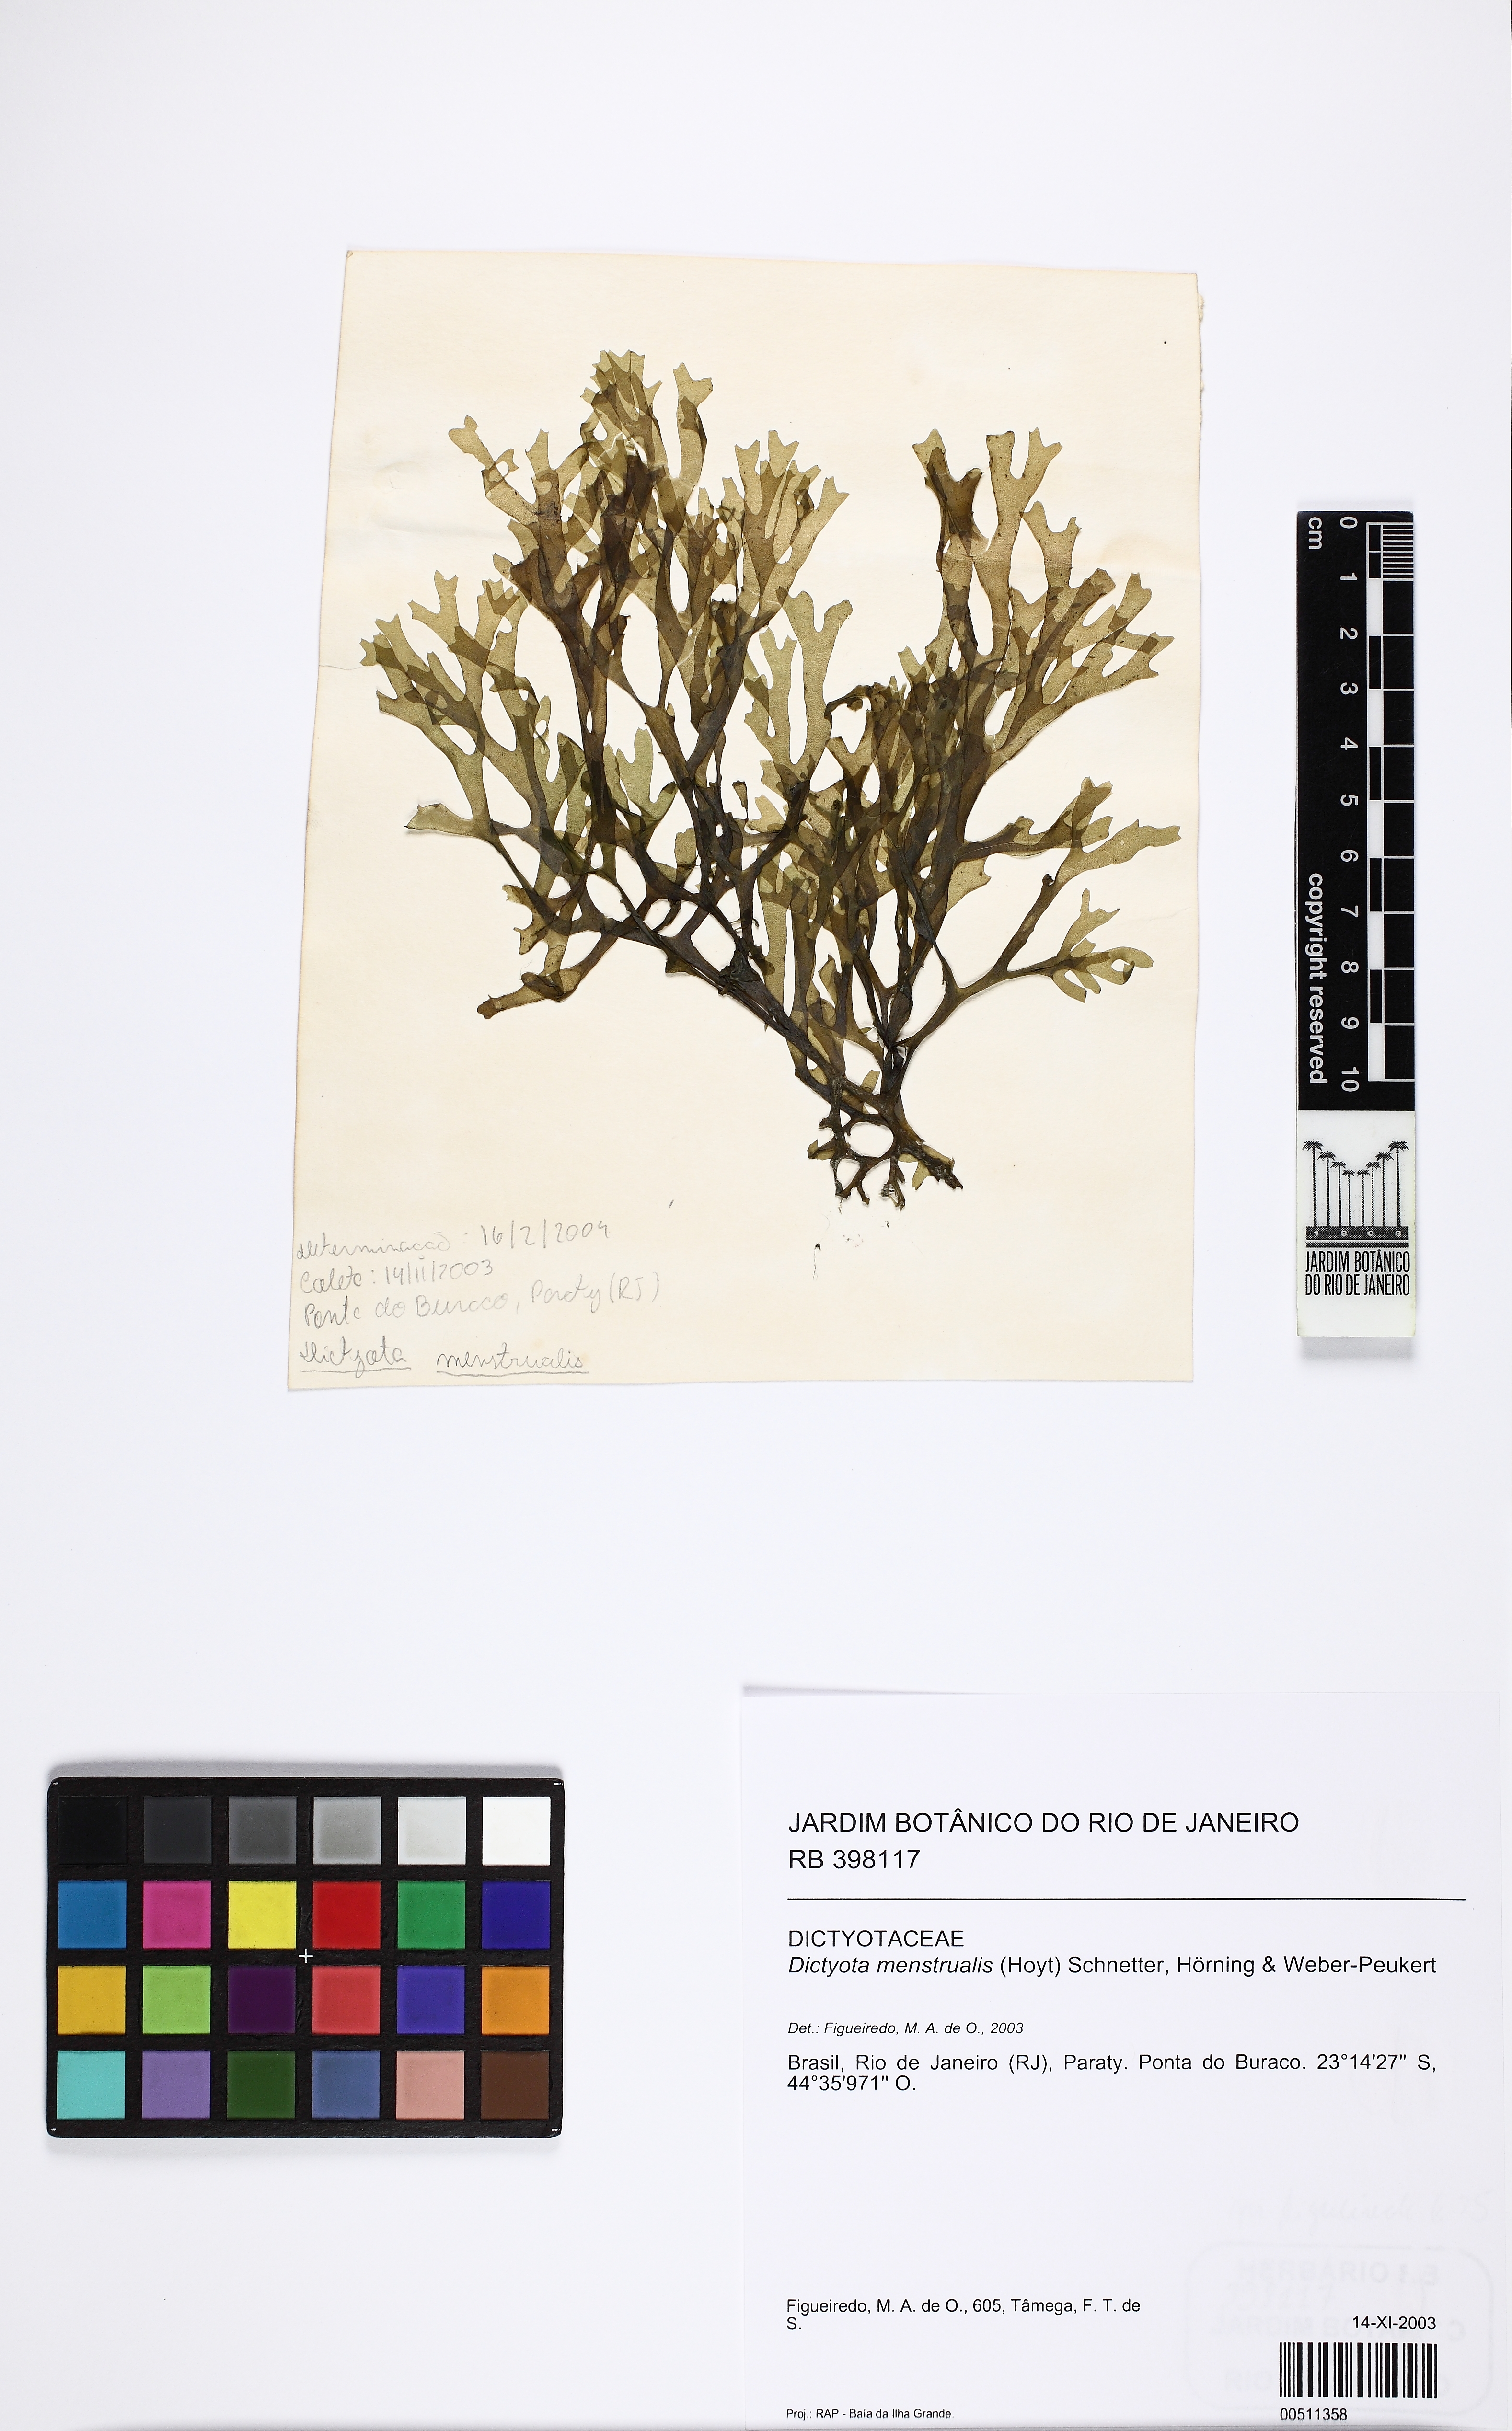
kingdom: Chromista
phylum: Ochrophyta
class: Phaeophyceae
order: Dictyotales
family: Dictyotaceae
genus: Dictyota
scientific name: Dictyota menstrualis
